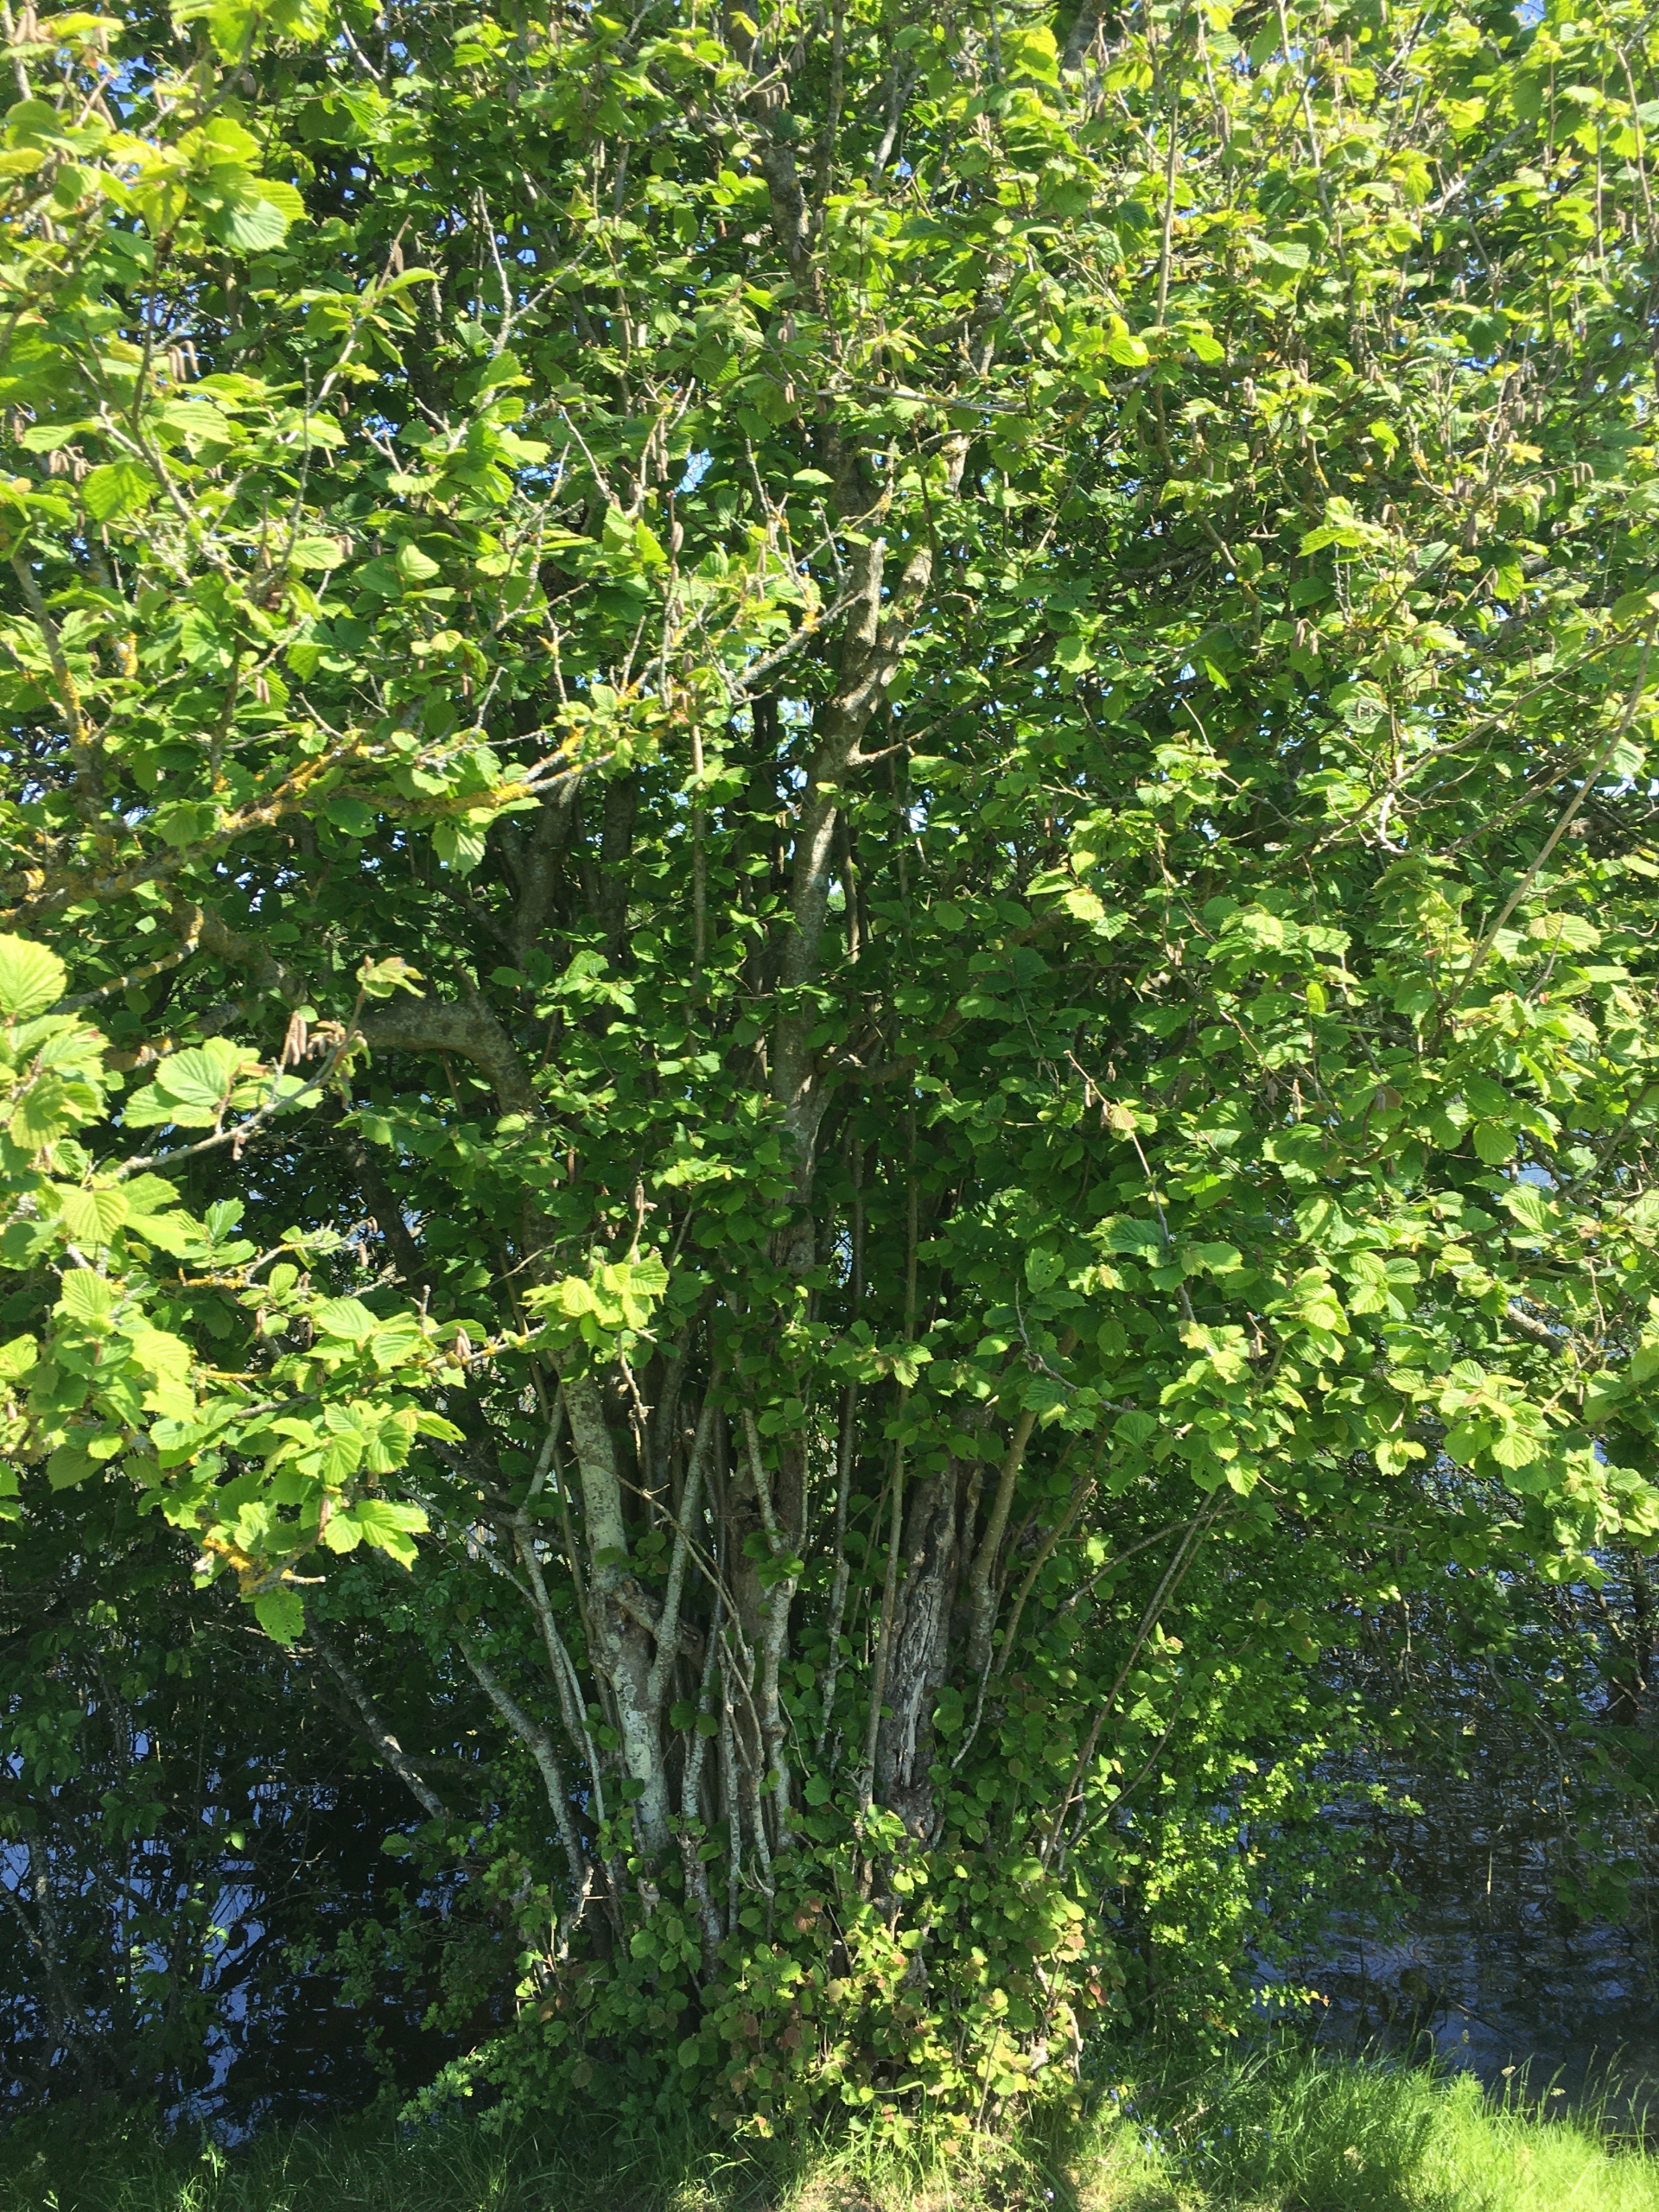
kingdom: Plantae
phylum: Tracheophyta
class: Magnoliopsida
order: Fagales
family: Betulaceae
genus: Corylus
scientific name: Corylus avellana
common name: Hassel
